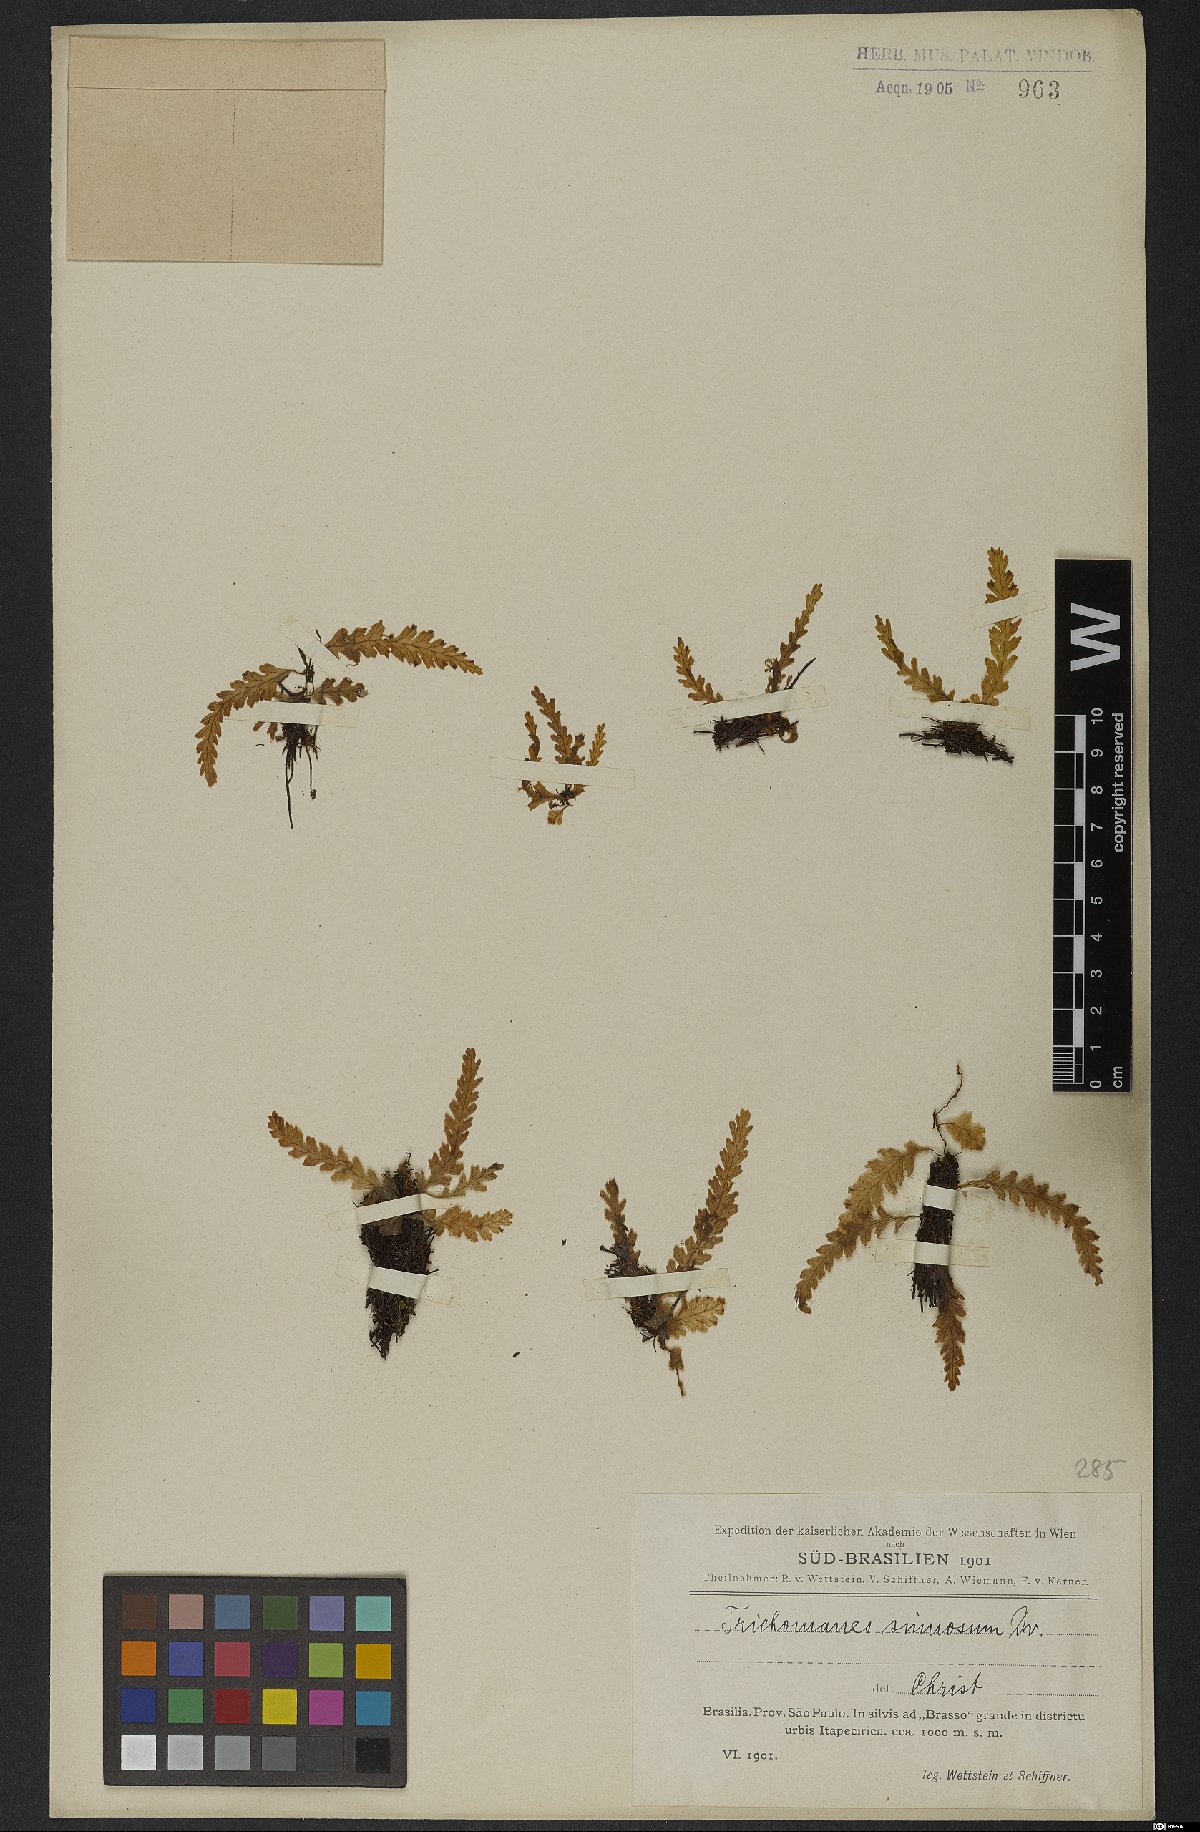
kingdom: Plantae
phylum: Tracheophyta
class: Polypodiopsida
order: Hymenophyllales
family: Hymenophyllaceae
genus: Trichomanes
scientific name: Trichomanes polypodioides
